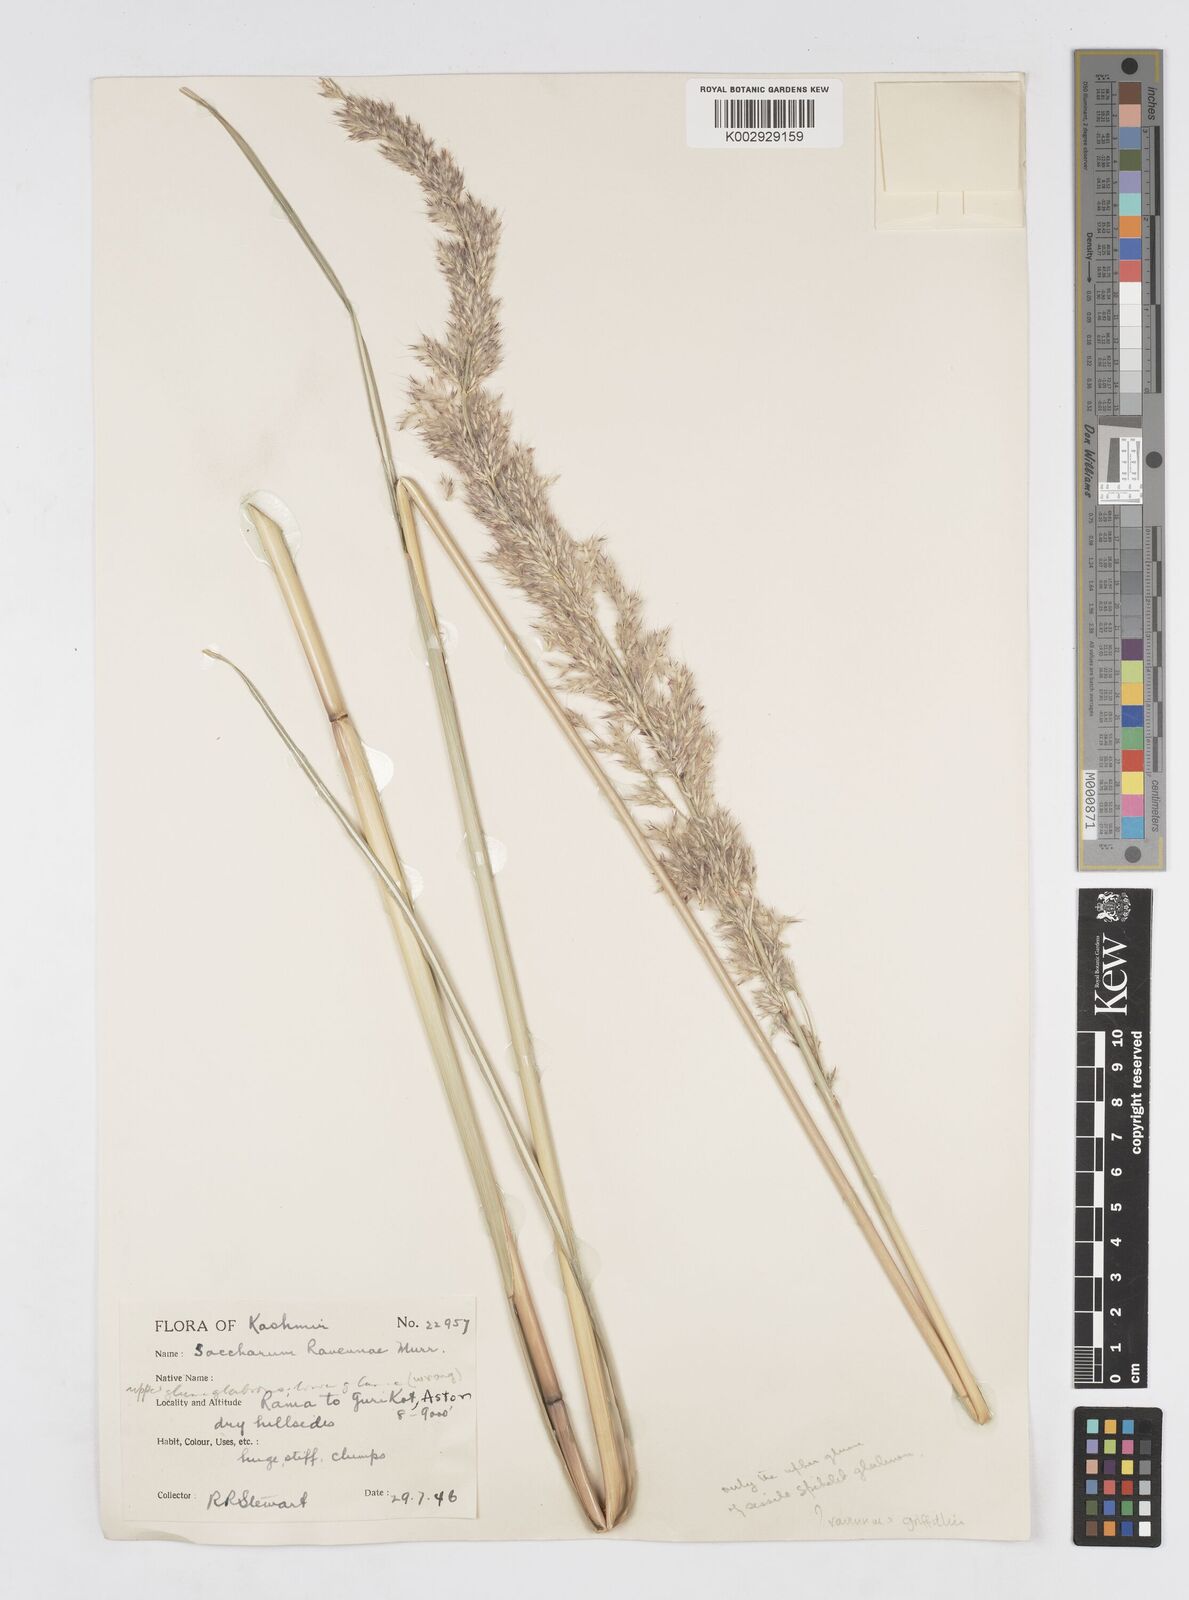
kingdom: Plantae
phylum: Tracheophyta
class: Liliopsida
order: Poales
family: Poaceae
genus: Saccharum
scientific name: Saccharum griffithii
